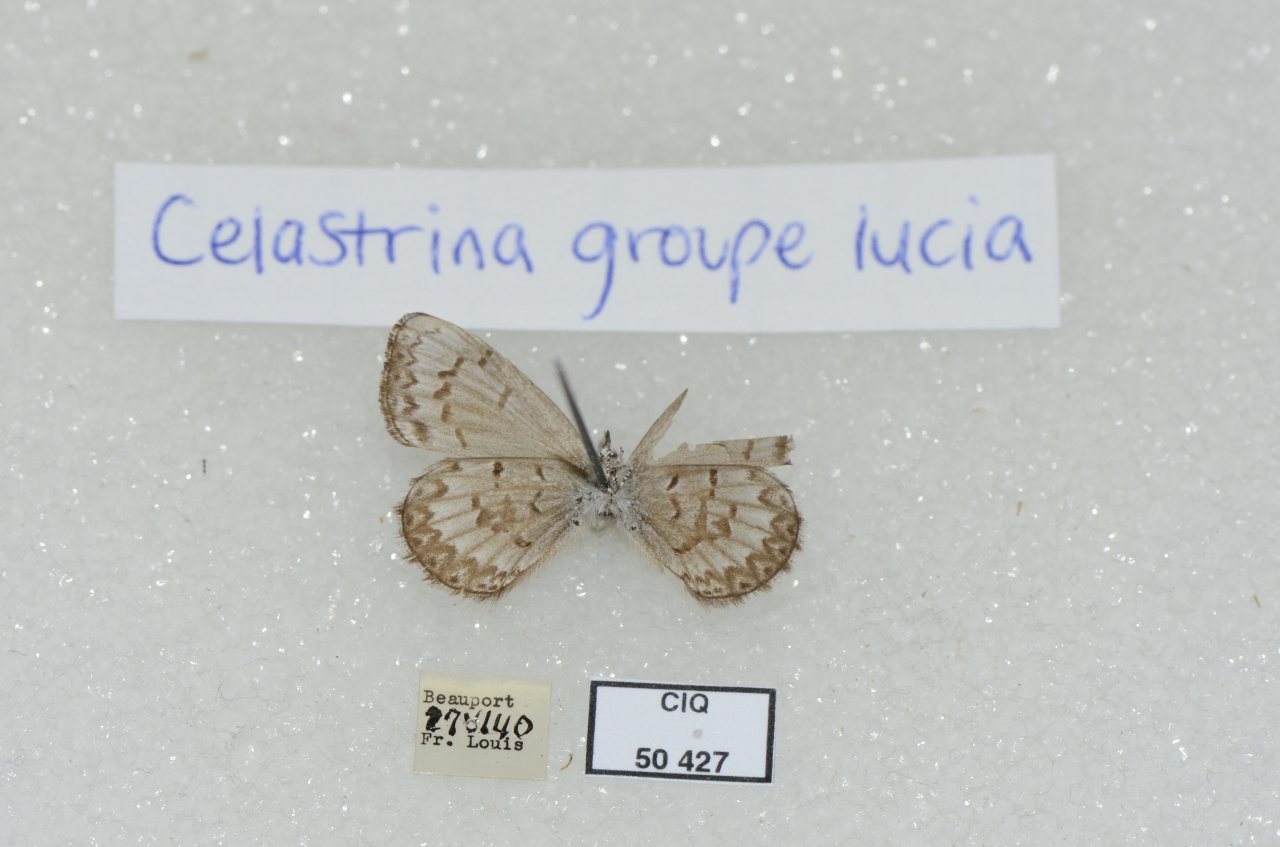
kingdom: Animalia
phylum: Arthropoda
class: Insecta
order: Lepidoptera
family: Lycaenidae
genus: Celastrina
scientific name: Celastrina lucia
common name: Northern Spring Azure
